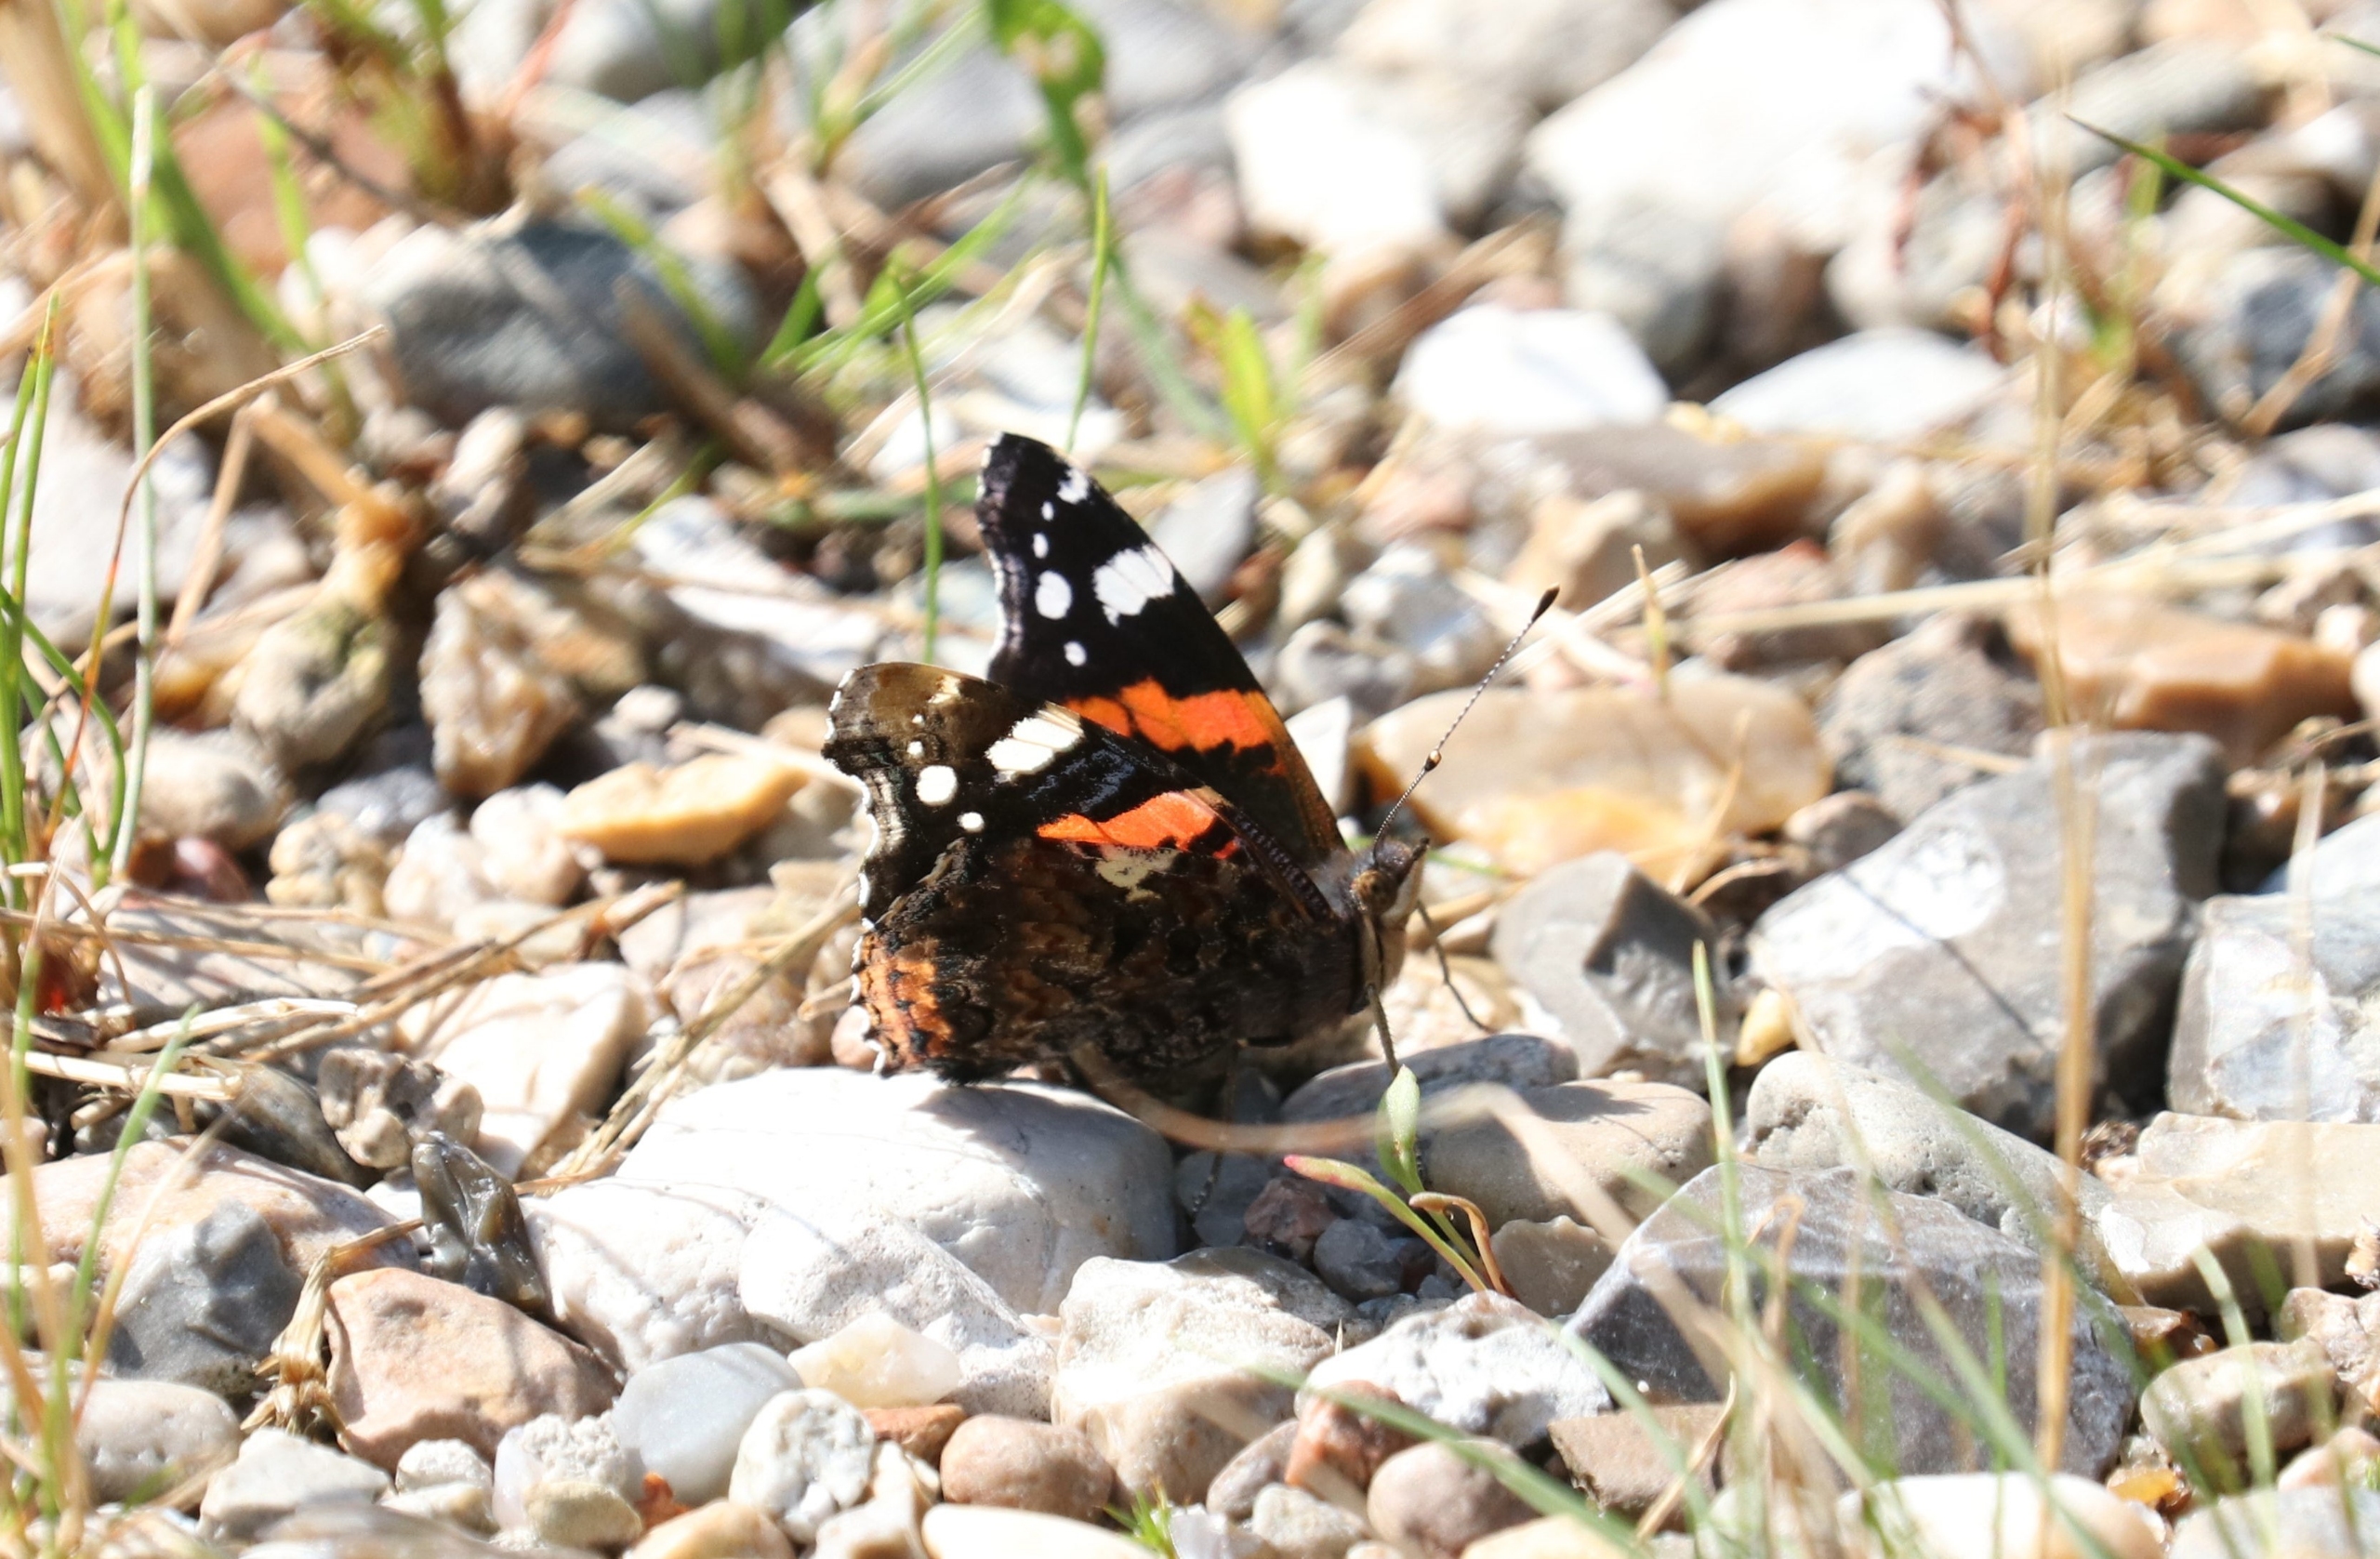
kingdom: Animalia
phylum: Arthropoda
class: Insecta
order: Lepidoptera
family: Nymphalidae
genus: Vanessa
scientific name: Vanessa atalanta
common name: Admiral
